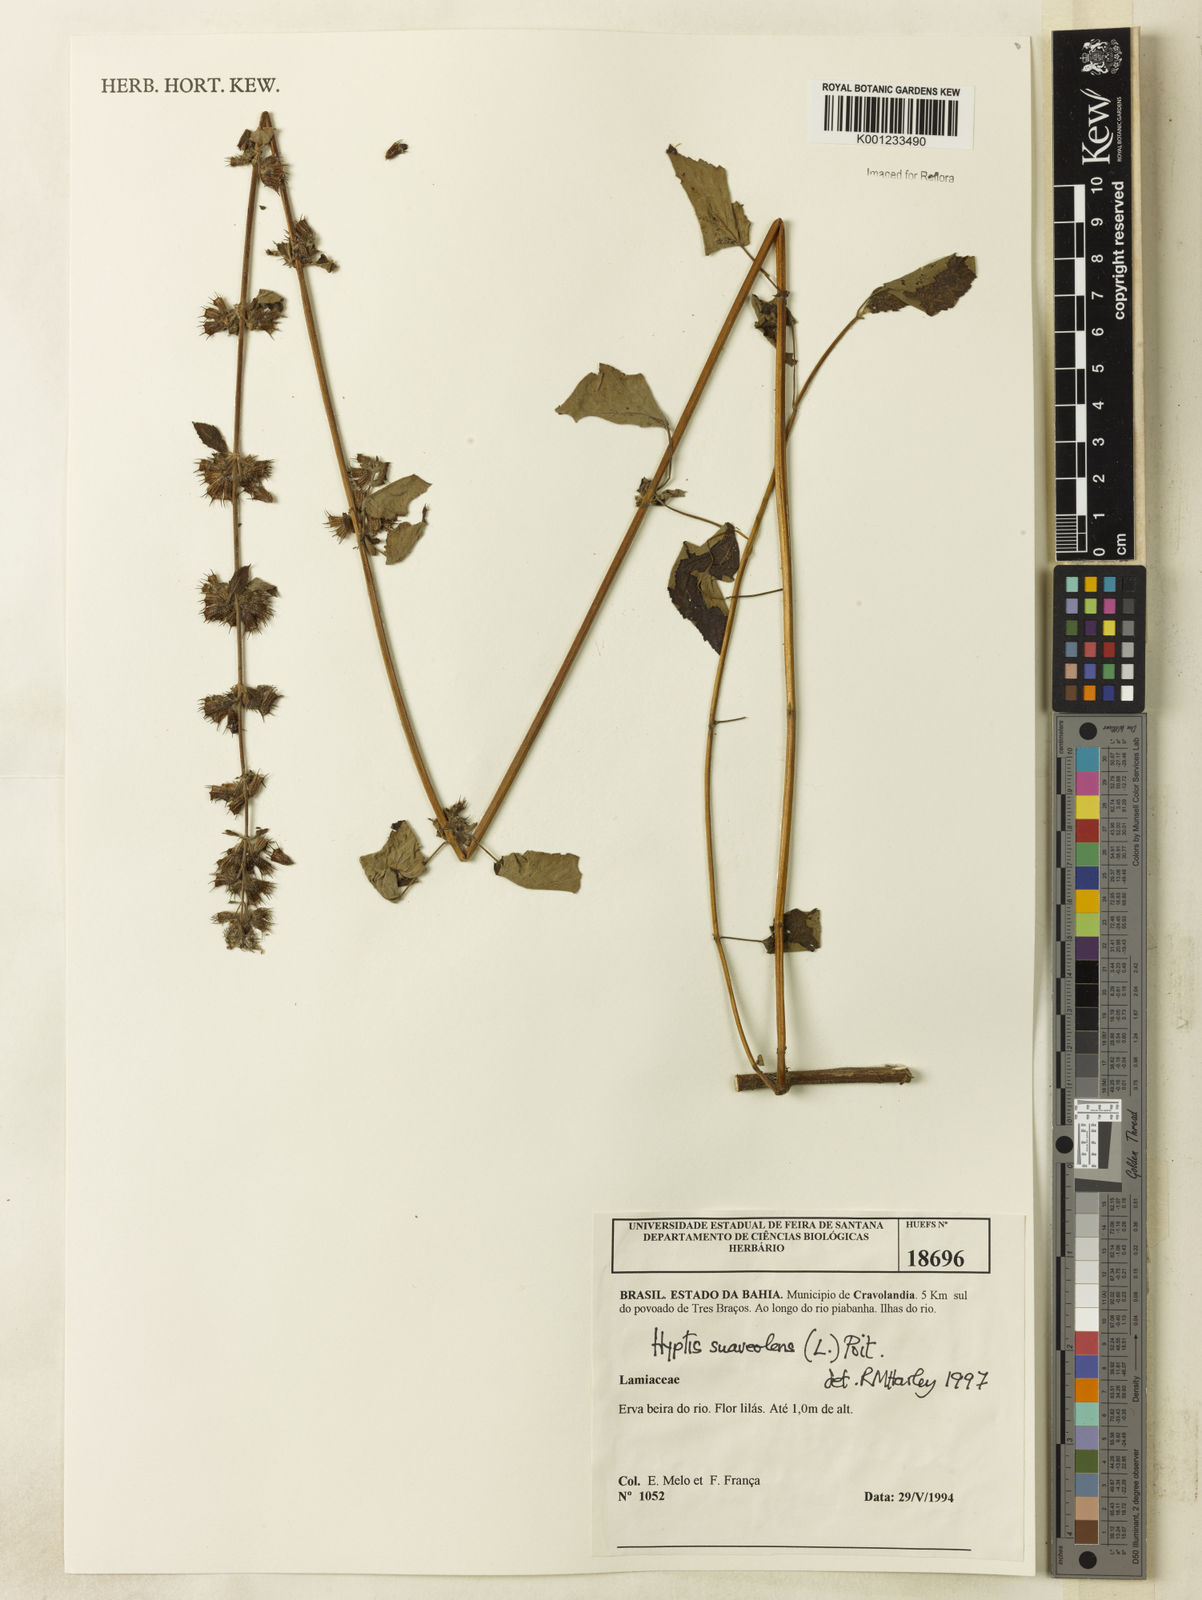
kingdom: Plantae
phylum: Tracheophyta
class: Magnoliopsida
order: Lamiales
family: Lamiaceae
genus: Mesosphaerum
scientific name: Mesosphaerum suaveolens
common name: Pignut
